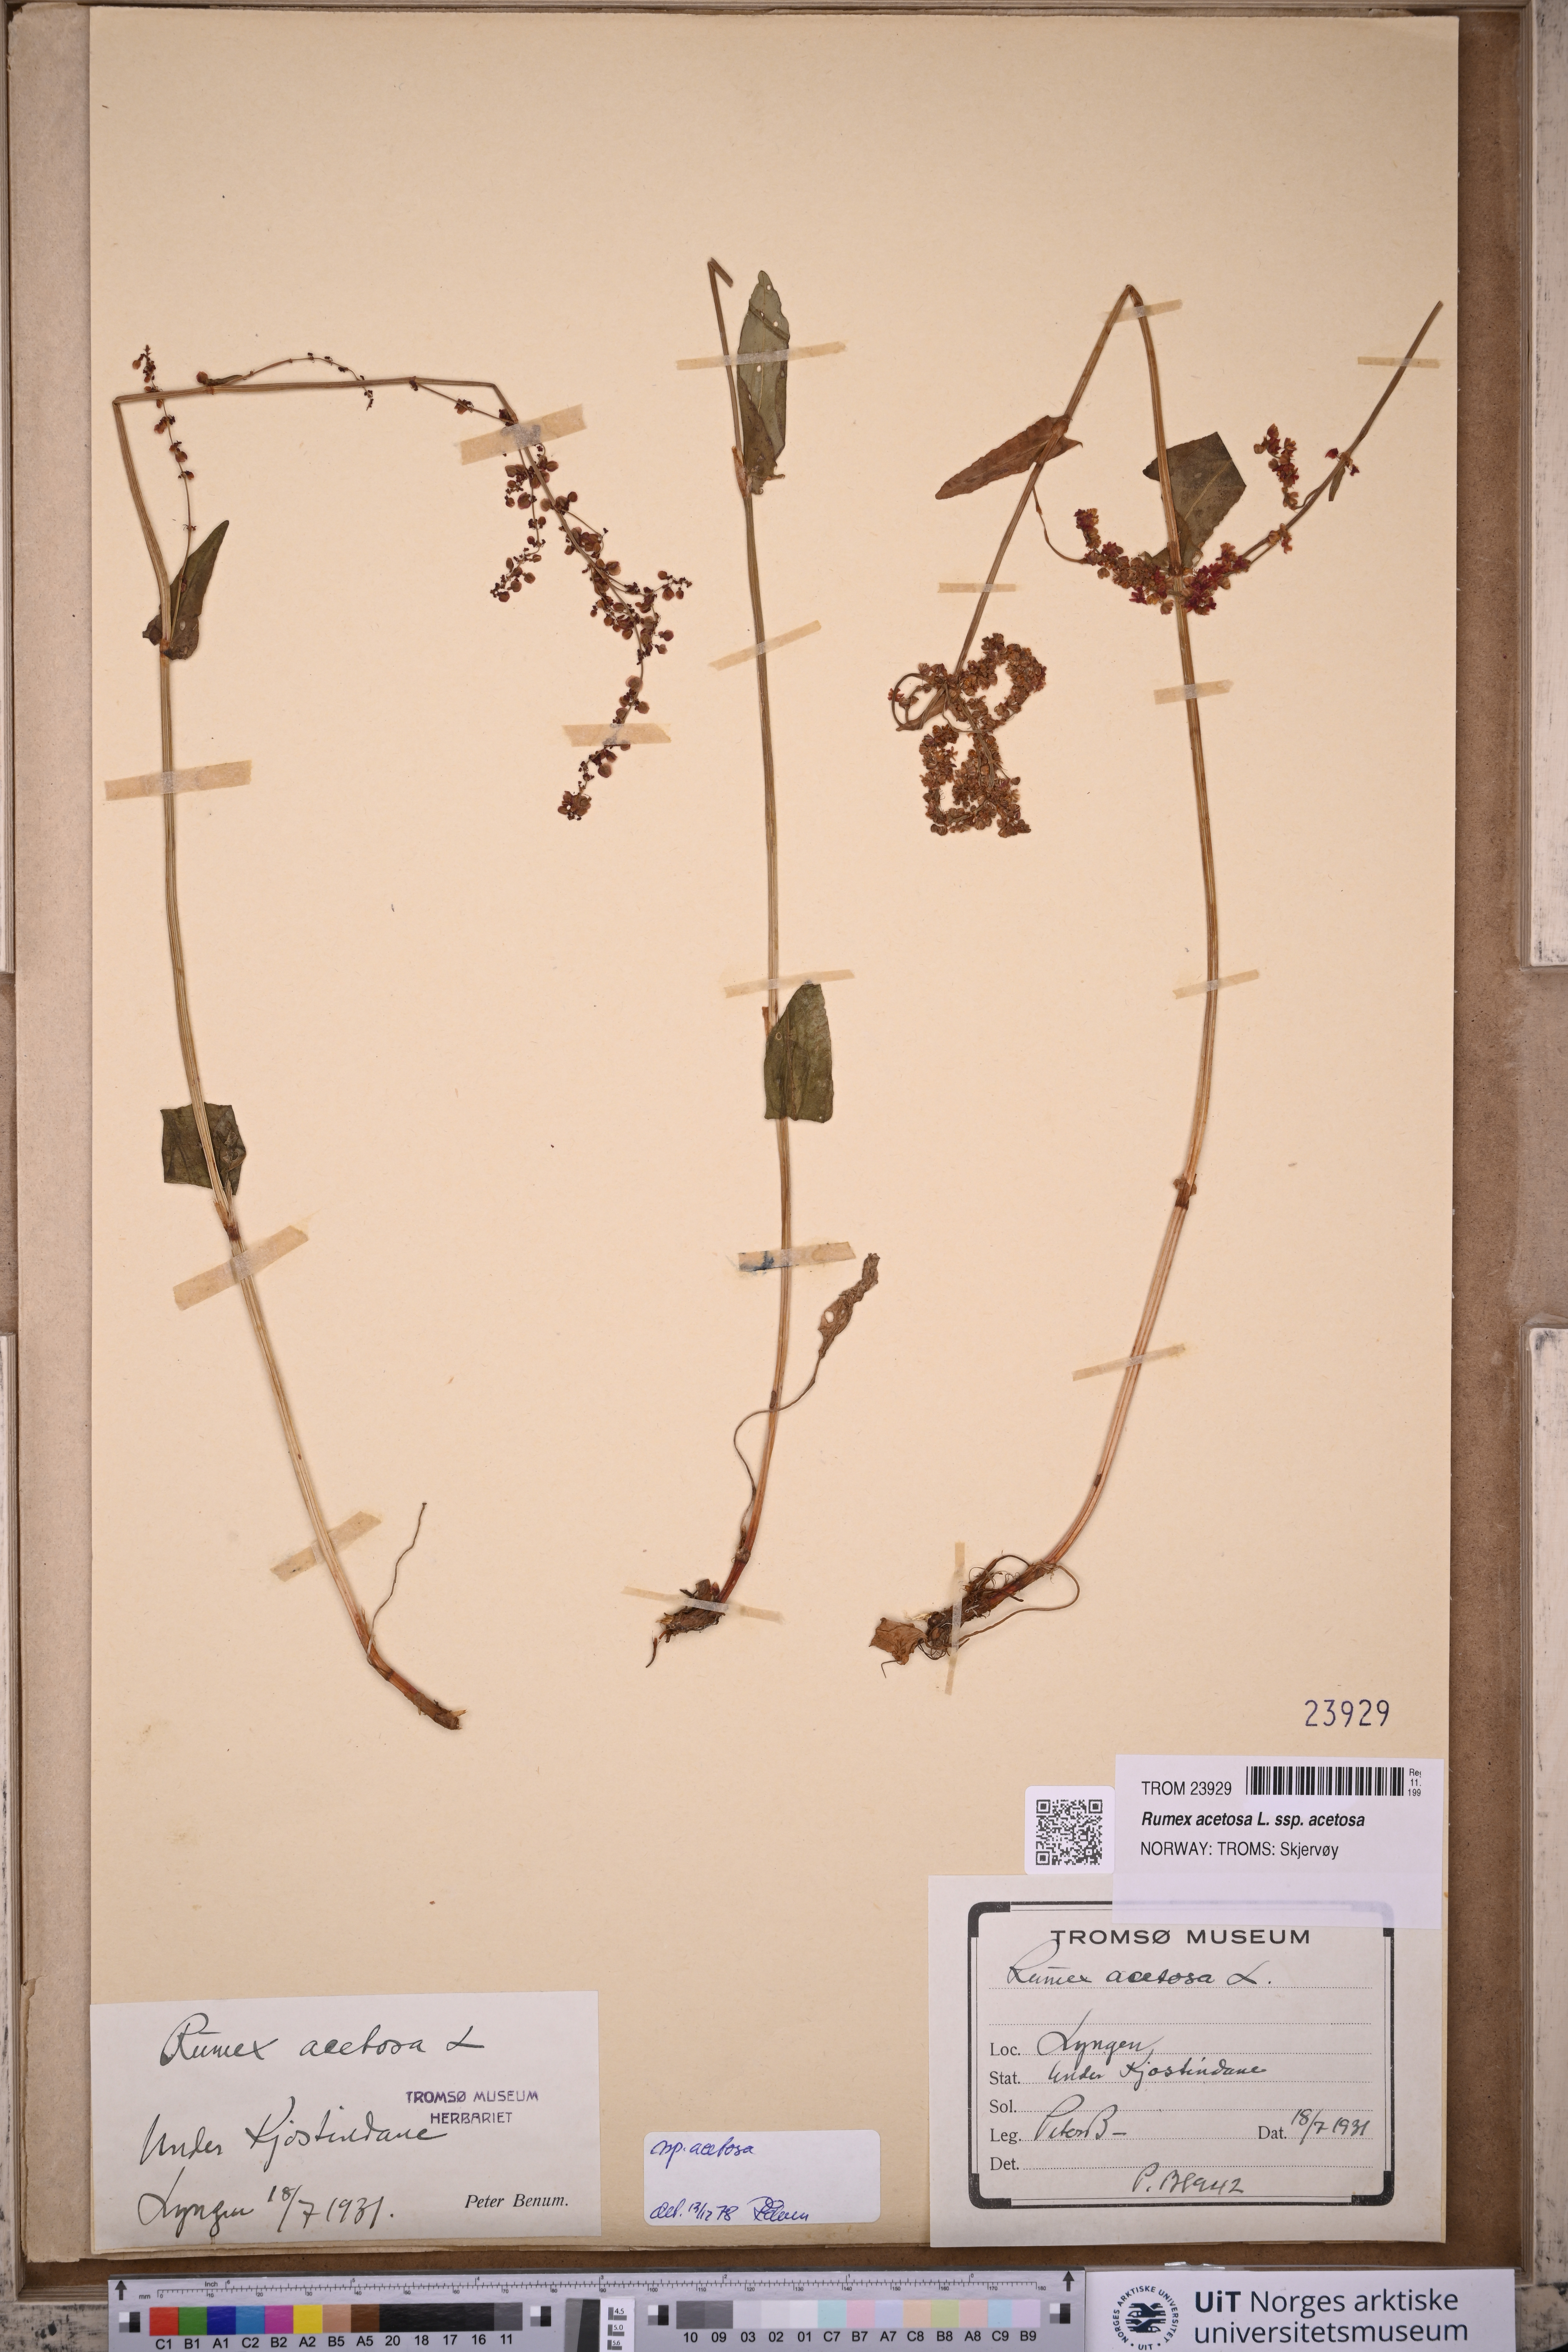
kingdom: Plantae
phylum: Tracheophyta
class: Magnoliopsida
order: Caryophyllales
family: Polygonaceae
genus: Rumex
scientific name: Rumex acetosa
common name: Garden sorrel
